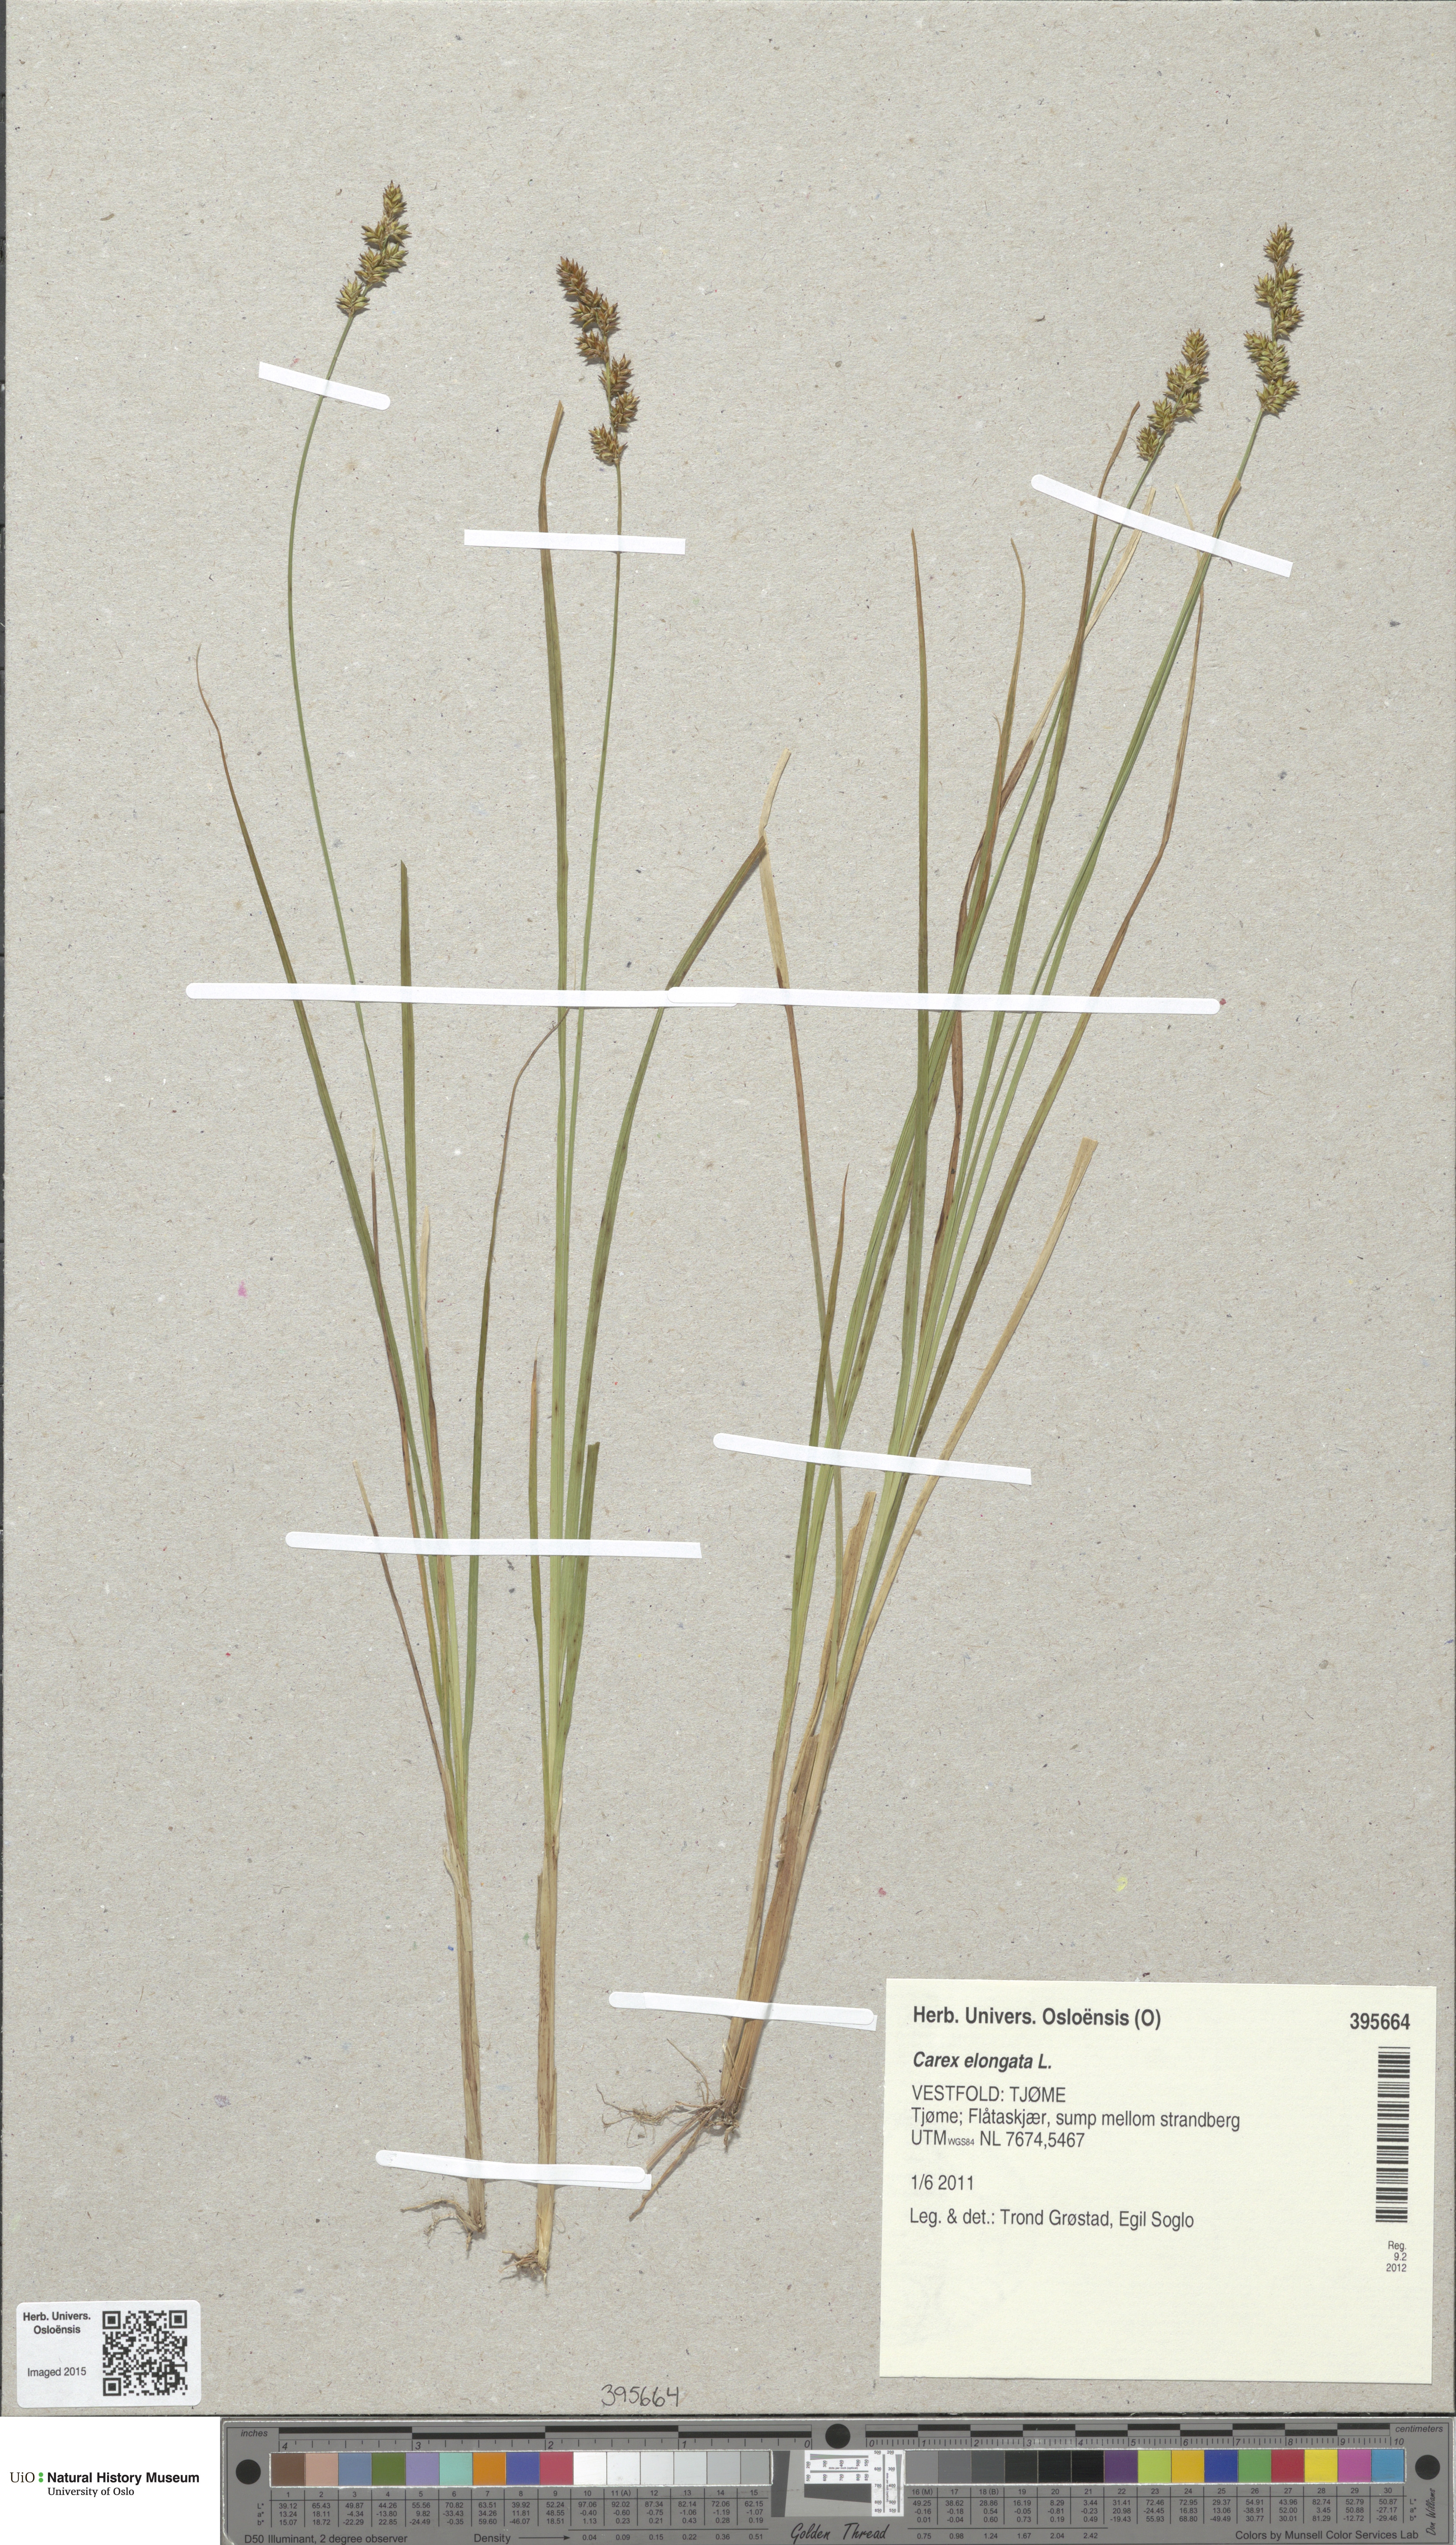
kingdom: Plantae
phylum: Tracheophyta
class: Liliopsida
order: Poales
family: Cyperaceae
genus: Carex
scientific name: Carex elongata
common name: Elongated sedge
